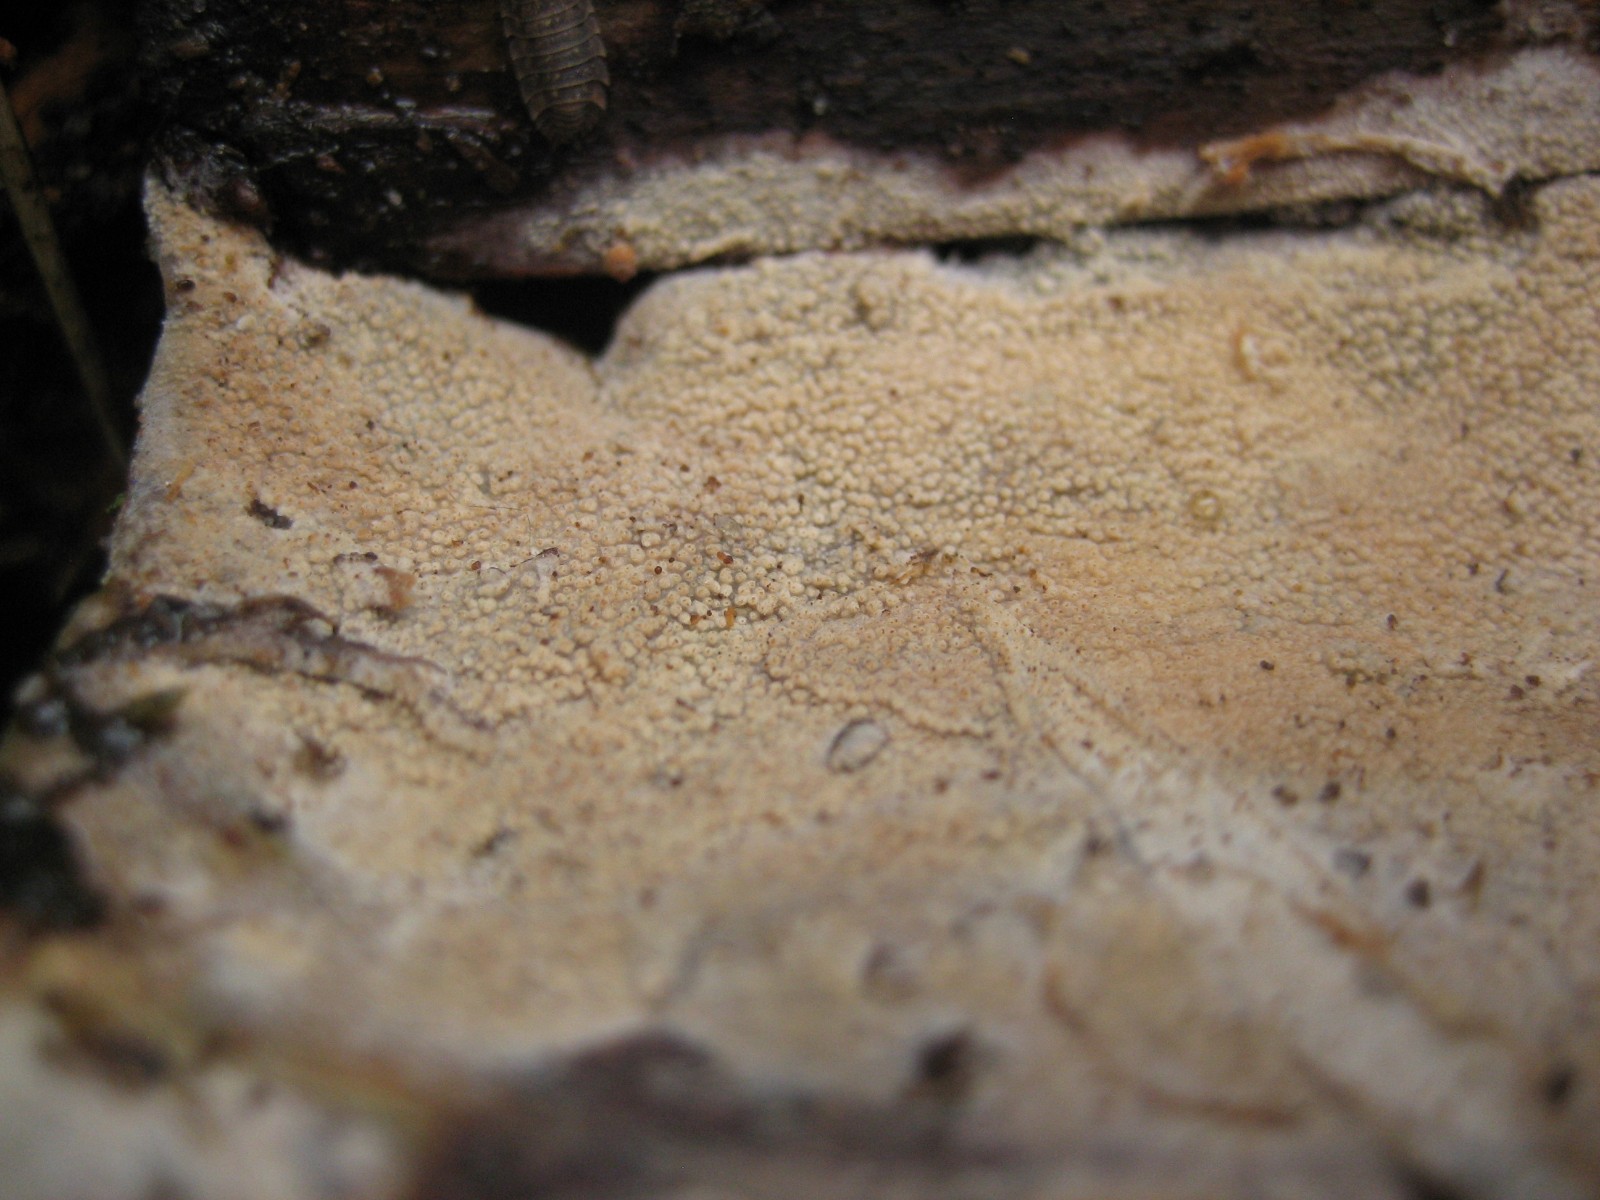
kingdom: Fungi
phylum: Basidiomycota
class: Agaricomycetes
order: Corticiales
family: Corticiaceae
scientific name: Corticiaceae
